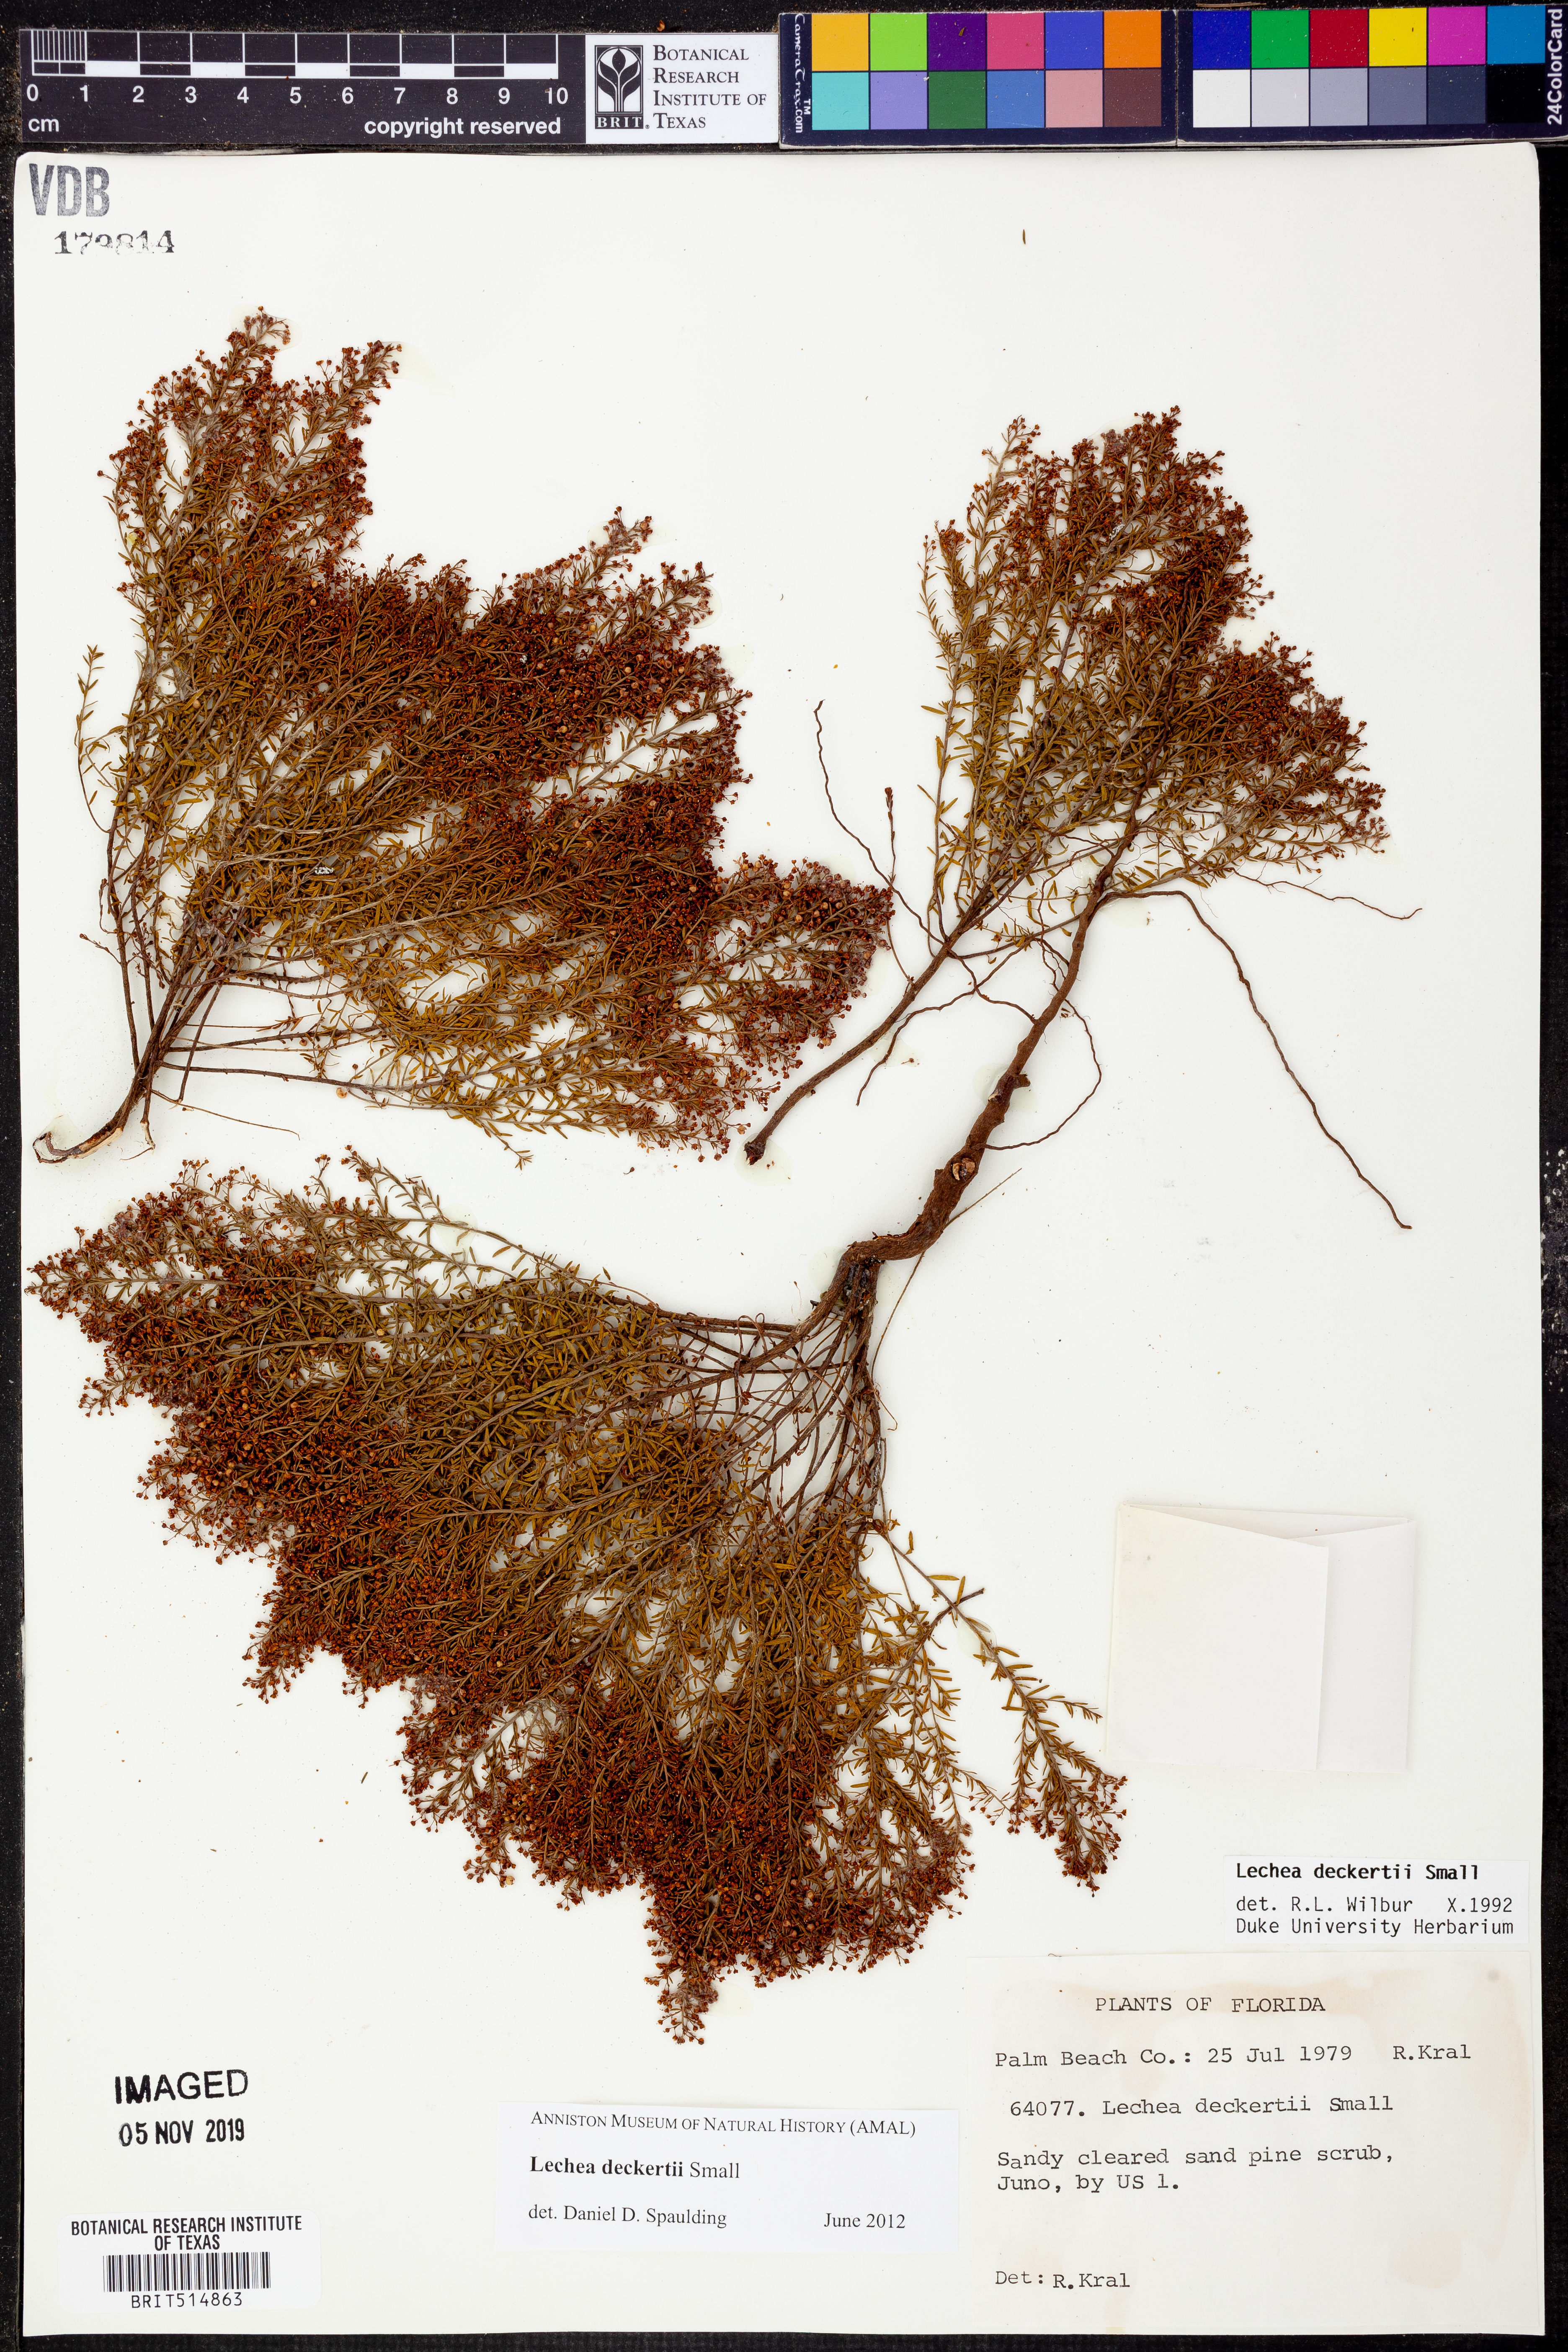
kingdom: Plantae
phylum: Tracheophyta
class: Magnoliopsida
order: Malvales
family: Cistaceae
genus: Lechea
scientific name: Lechea deckertii
